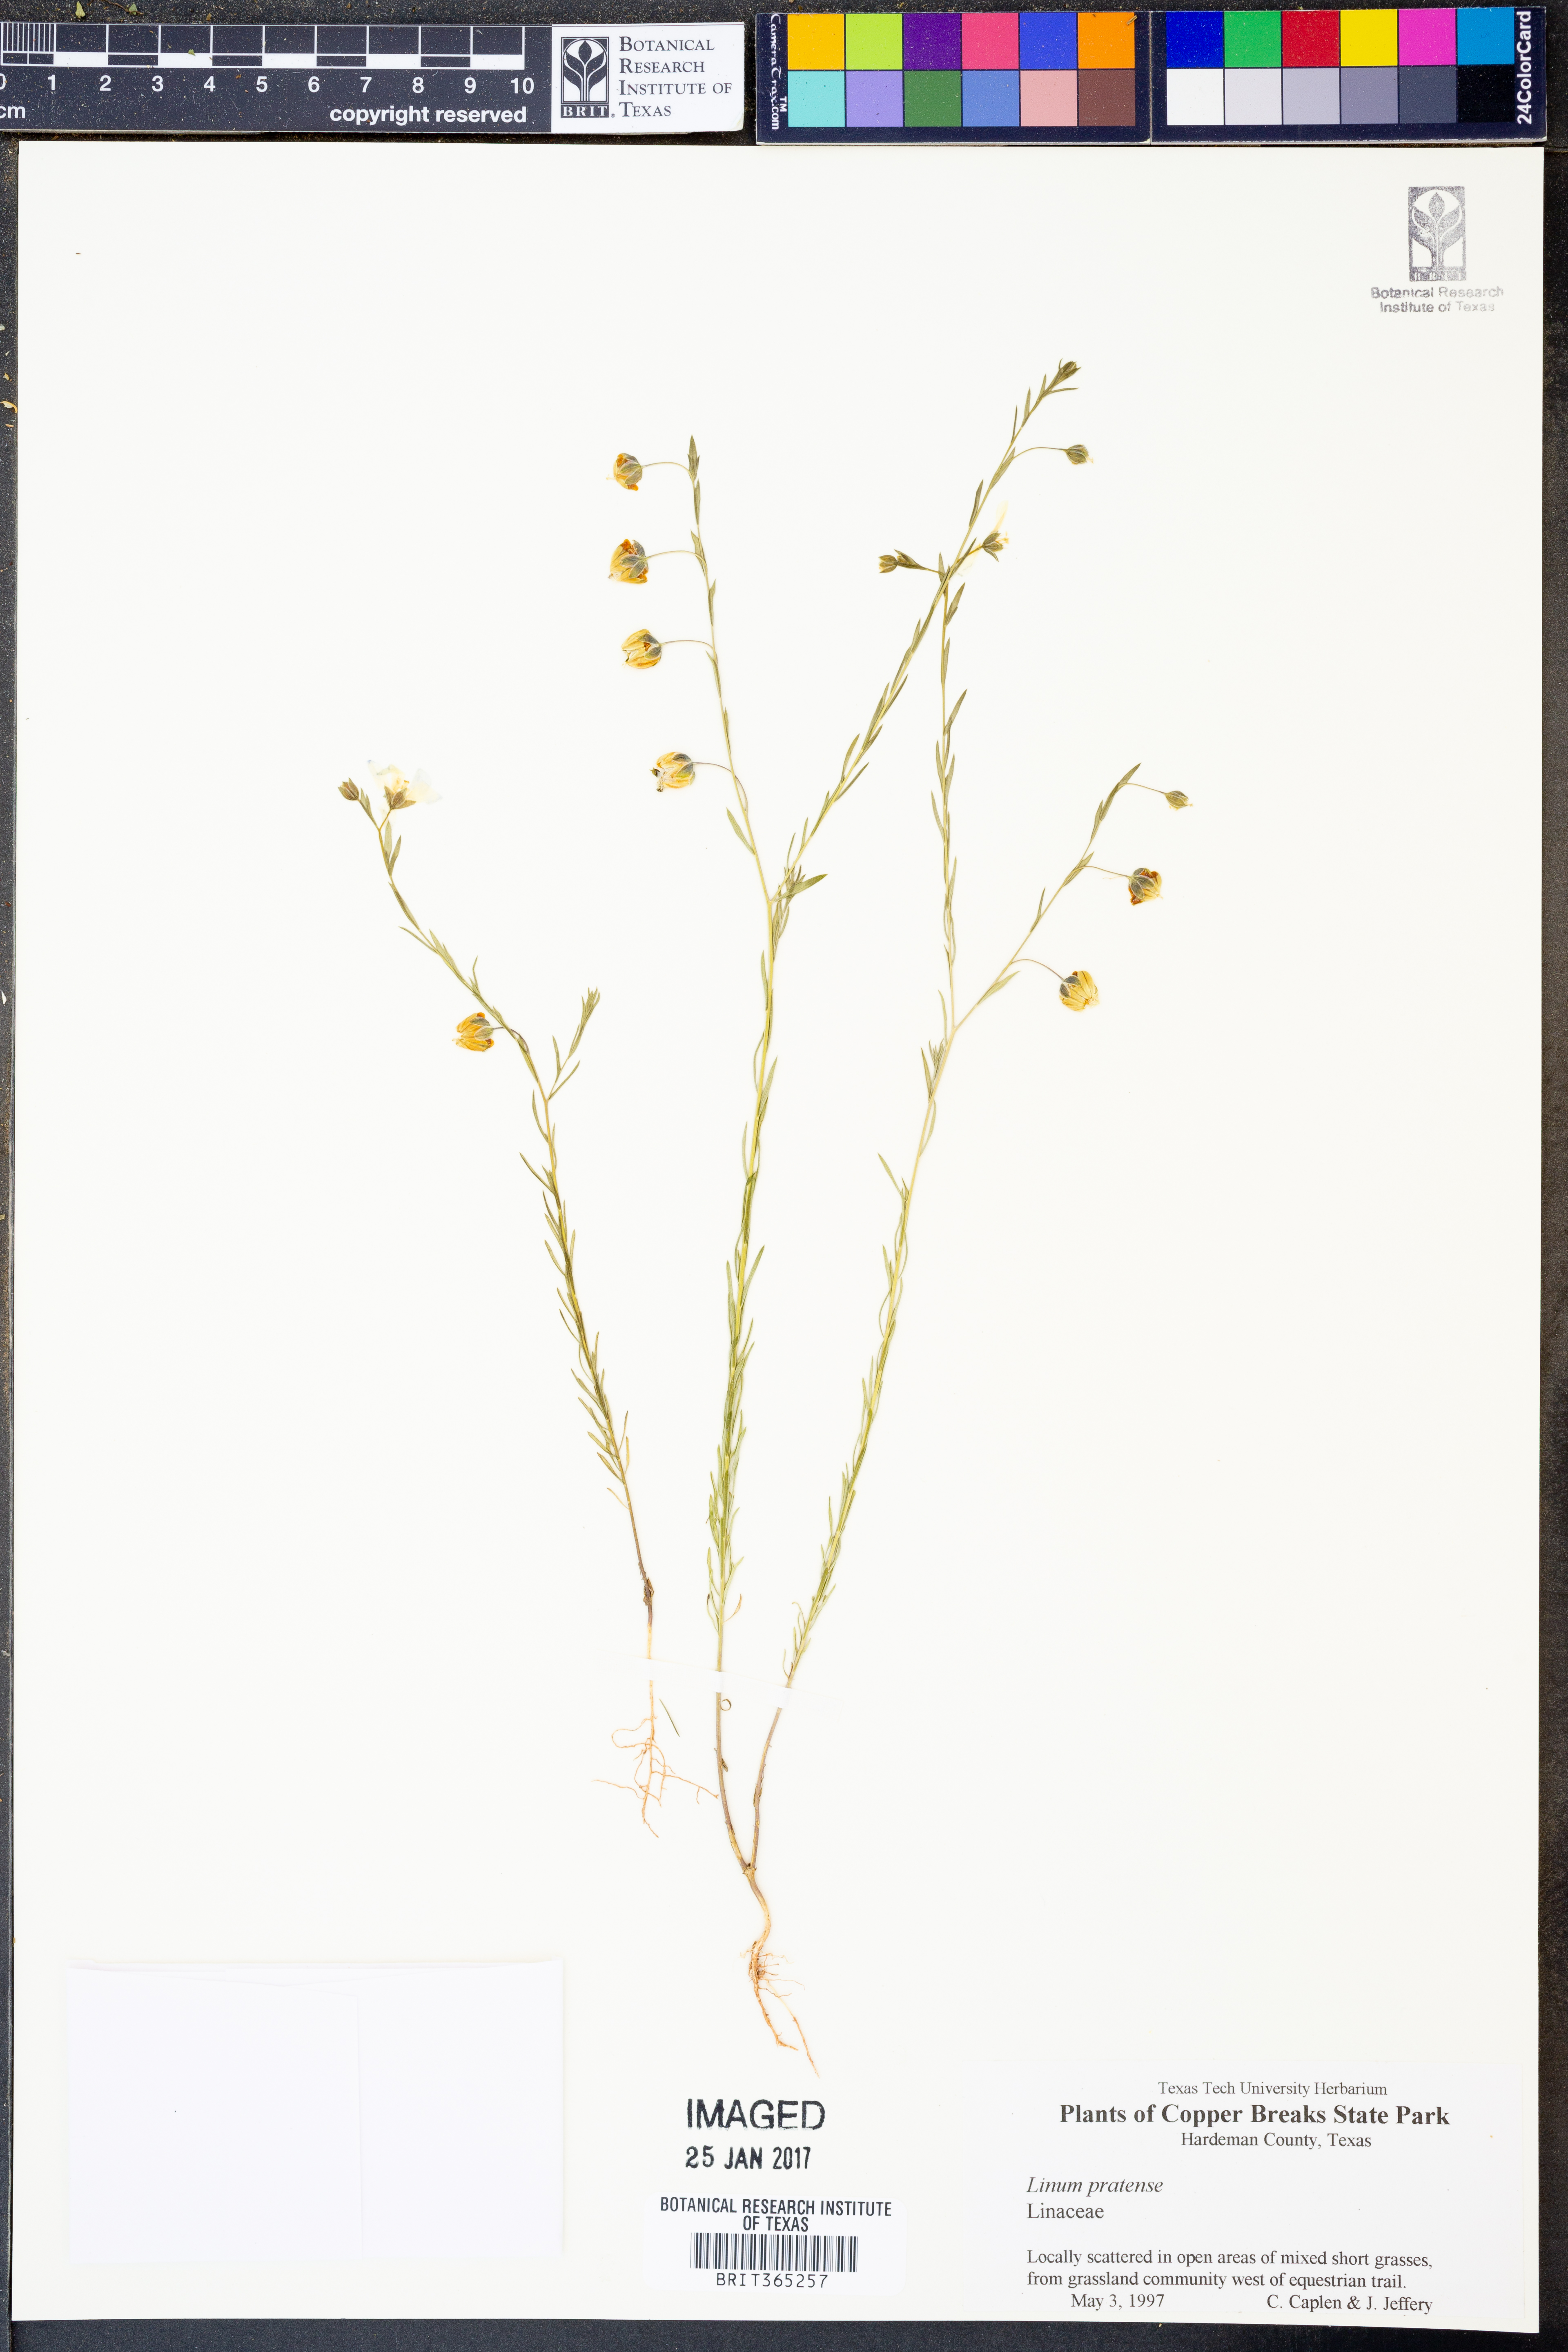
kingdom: Plantae
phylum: Tracheophyta
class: Magnoliopsida
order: Malpighiales
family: Linaceae
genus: Linum
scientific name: Linum pratense
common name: Norton's flax
